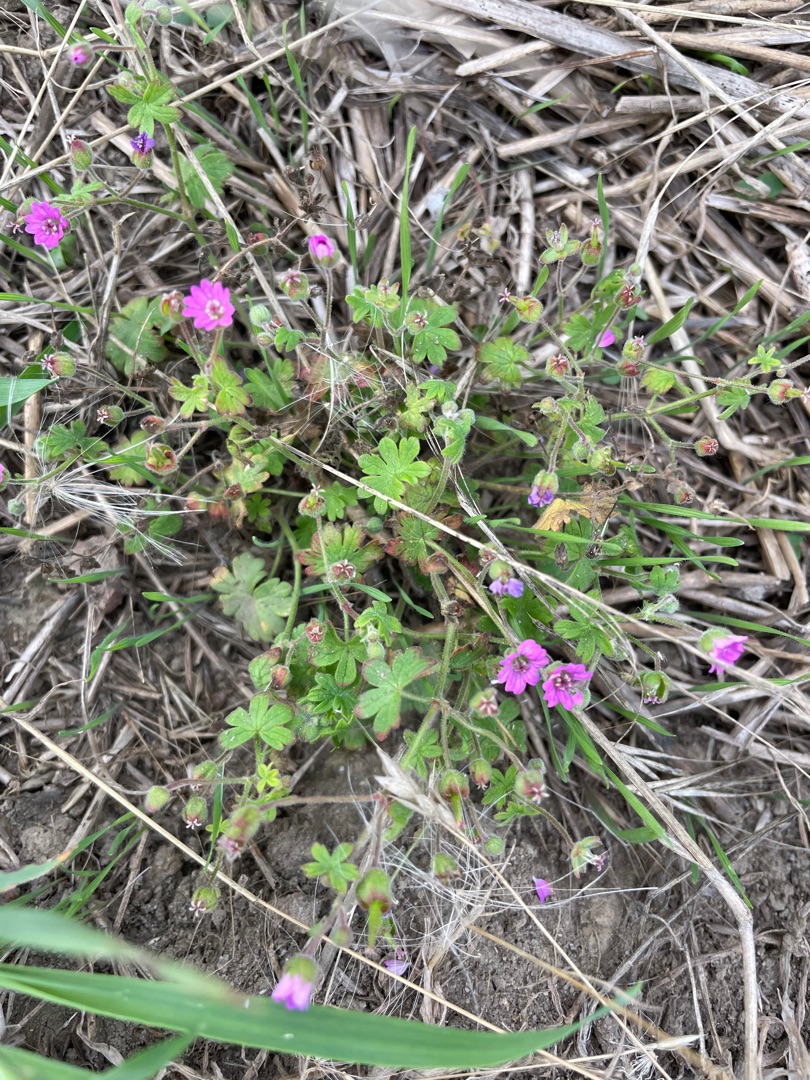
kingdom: Plantae
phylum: Tracheophyta
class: Magnoliopsida
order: Geraniales
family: Geraniaceae
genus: Geranium
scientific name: Geranium molle
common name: Blød storkenæb
